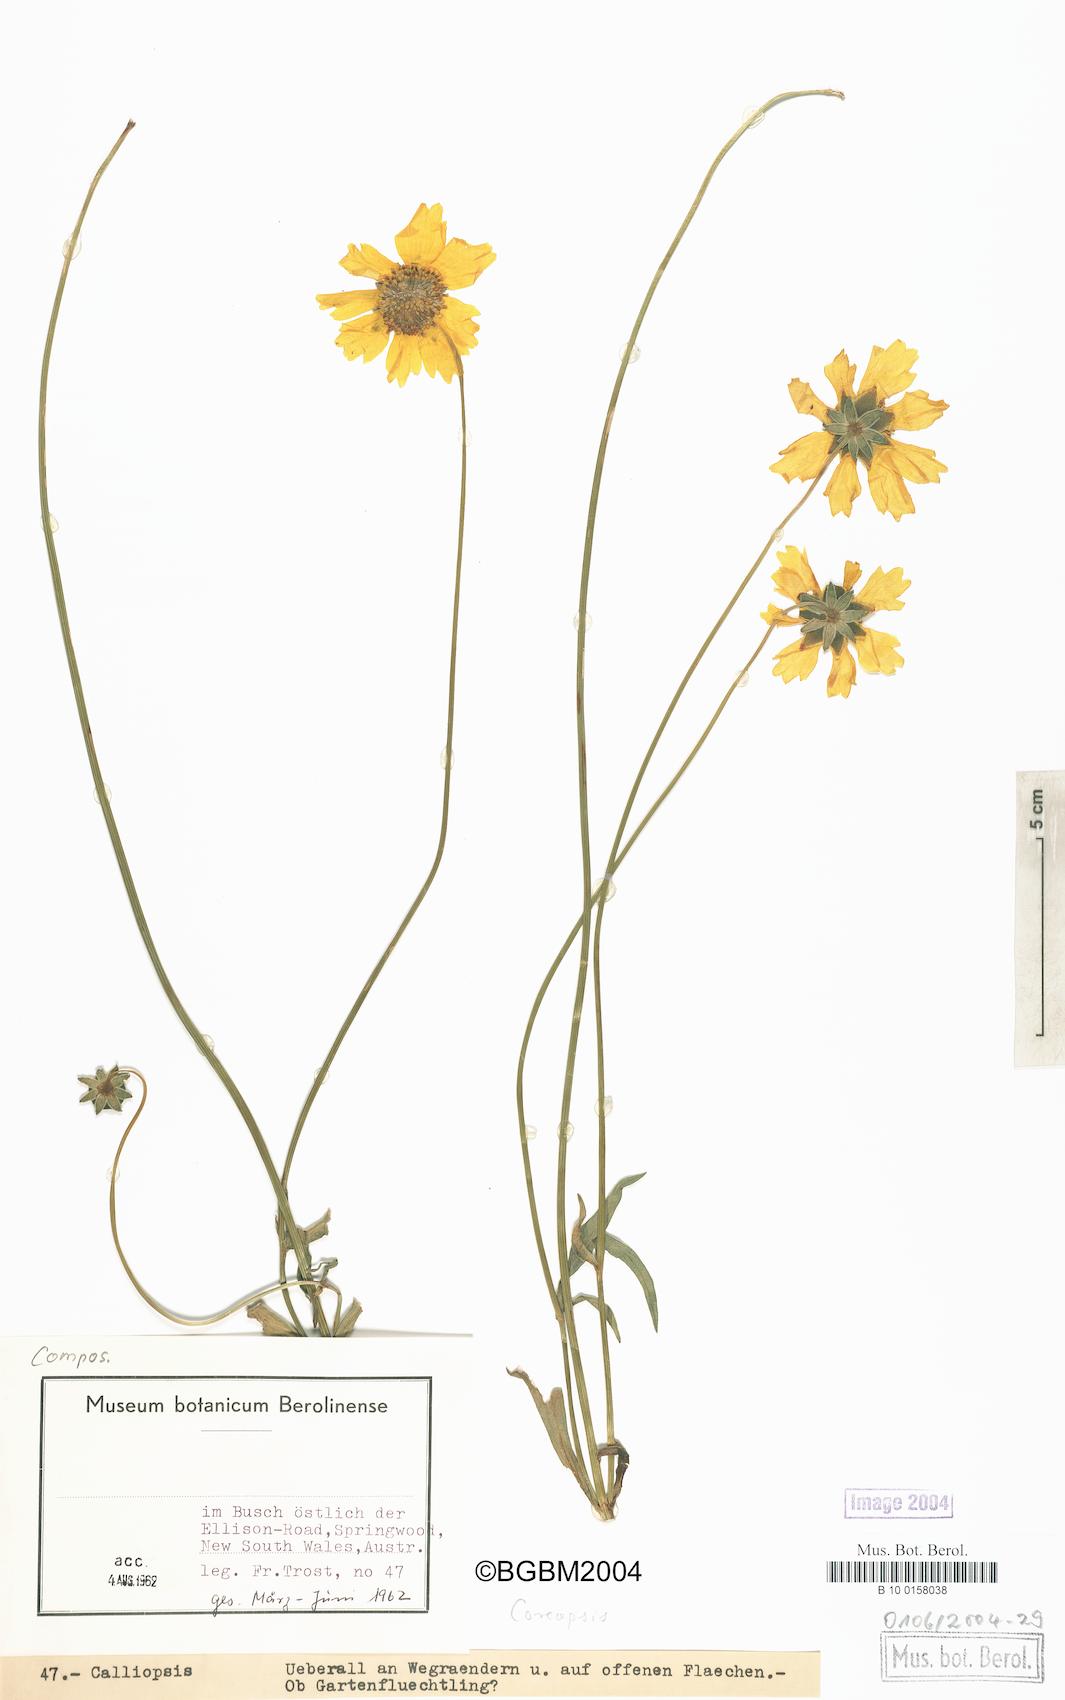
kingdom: Plantae
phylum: Tracheophyta
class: Magnoliopsida
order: Asterales
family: Asteraceae
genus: Coreopsis
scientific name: Coreopsis
